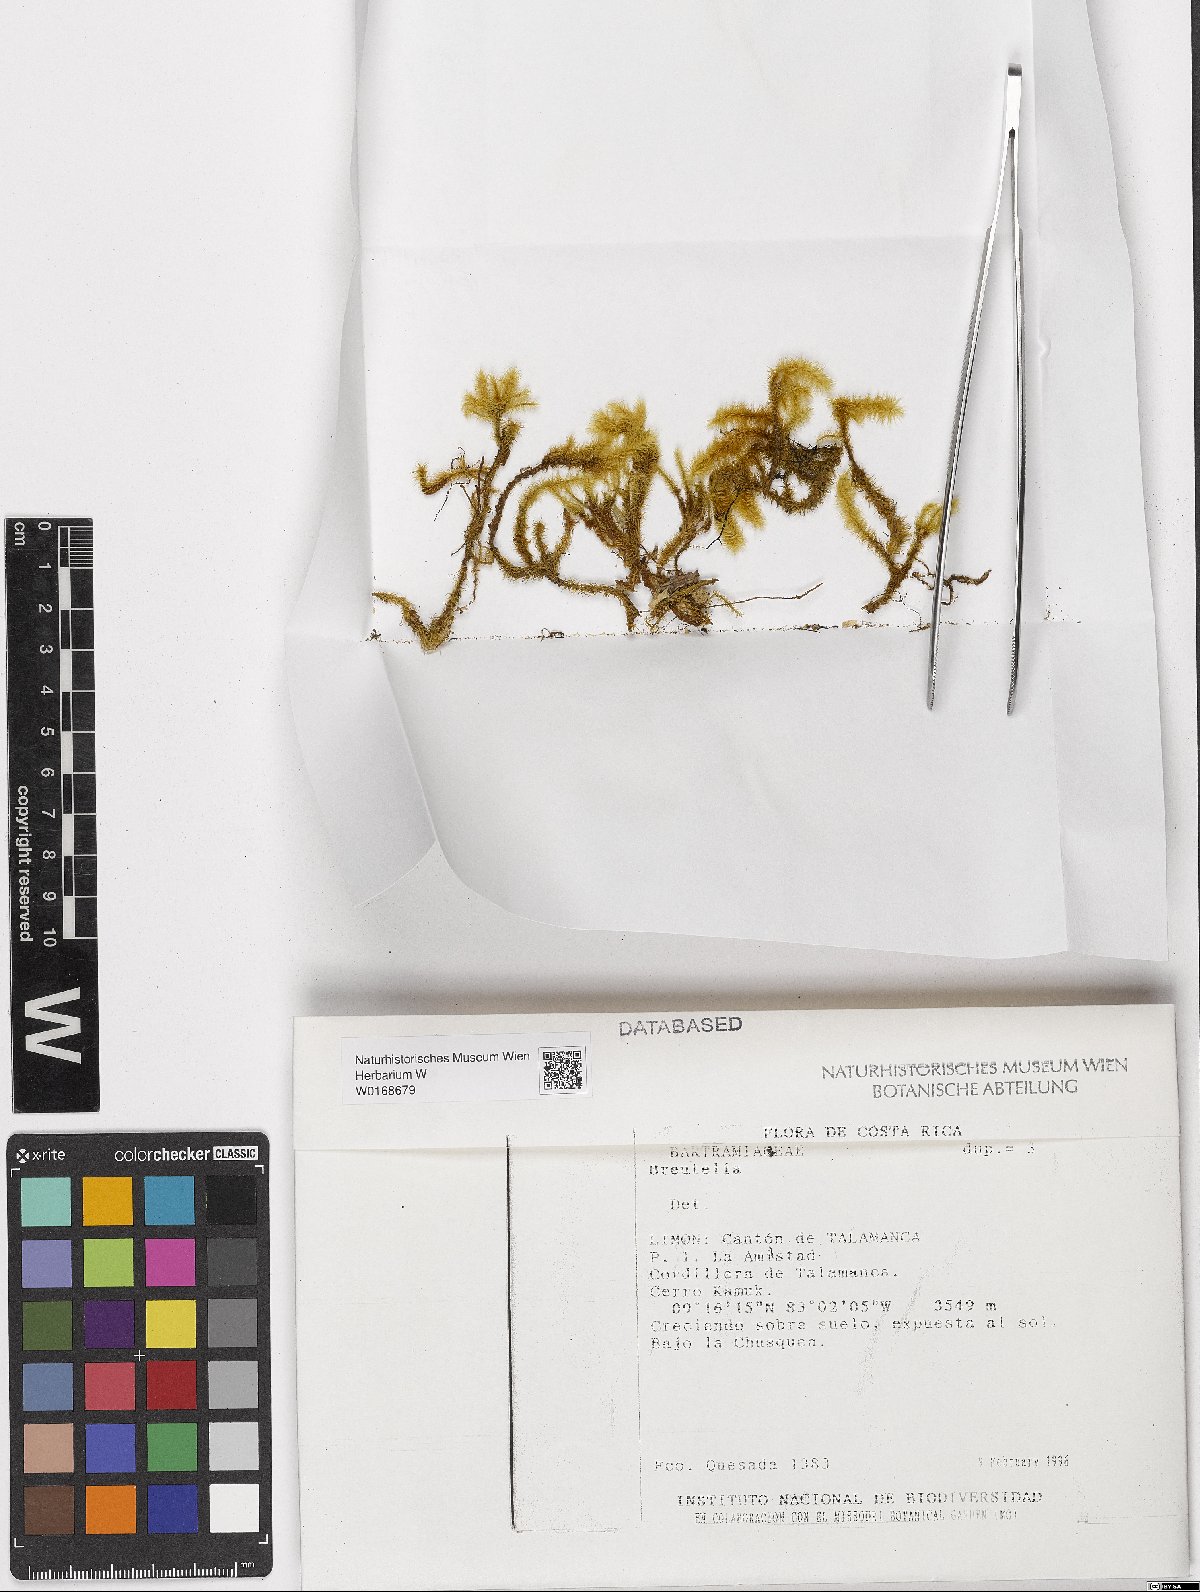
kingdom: Plantae
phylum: Bryophyta
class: Bryopsida
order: Bartramiales
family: Bartramiaceae
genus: Breutelia
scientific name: Breutelia
